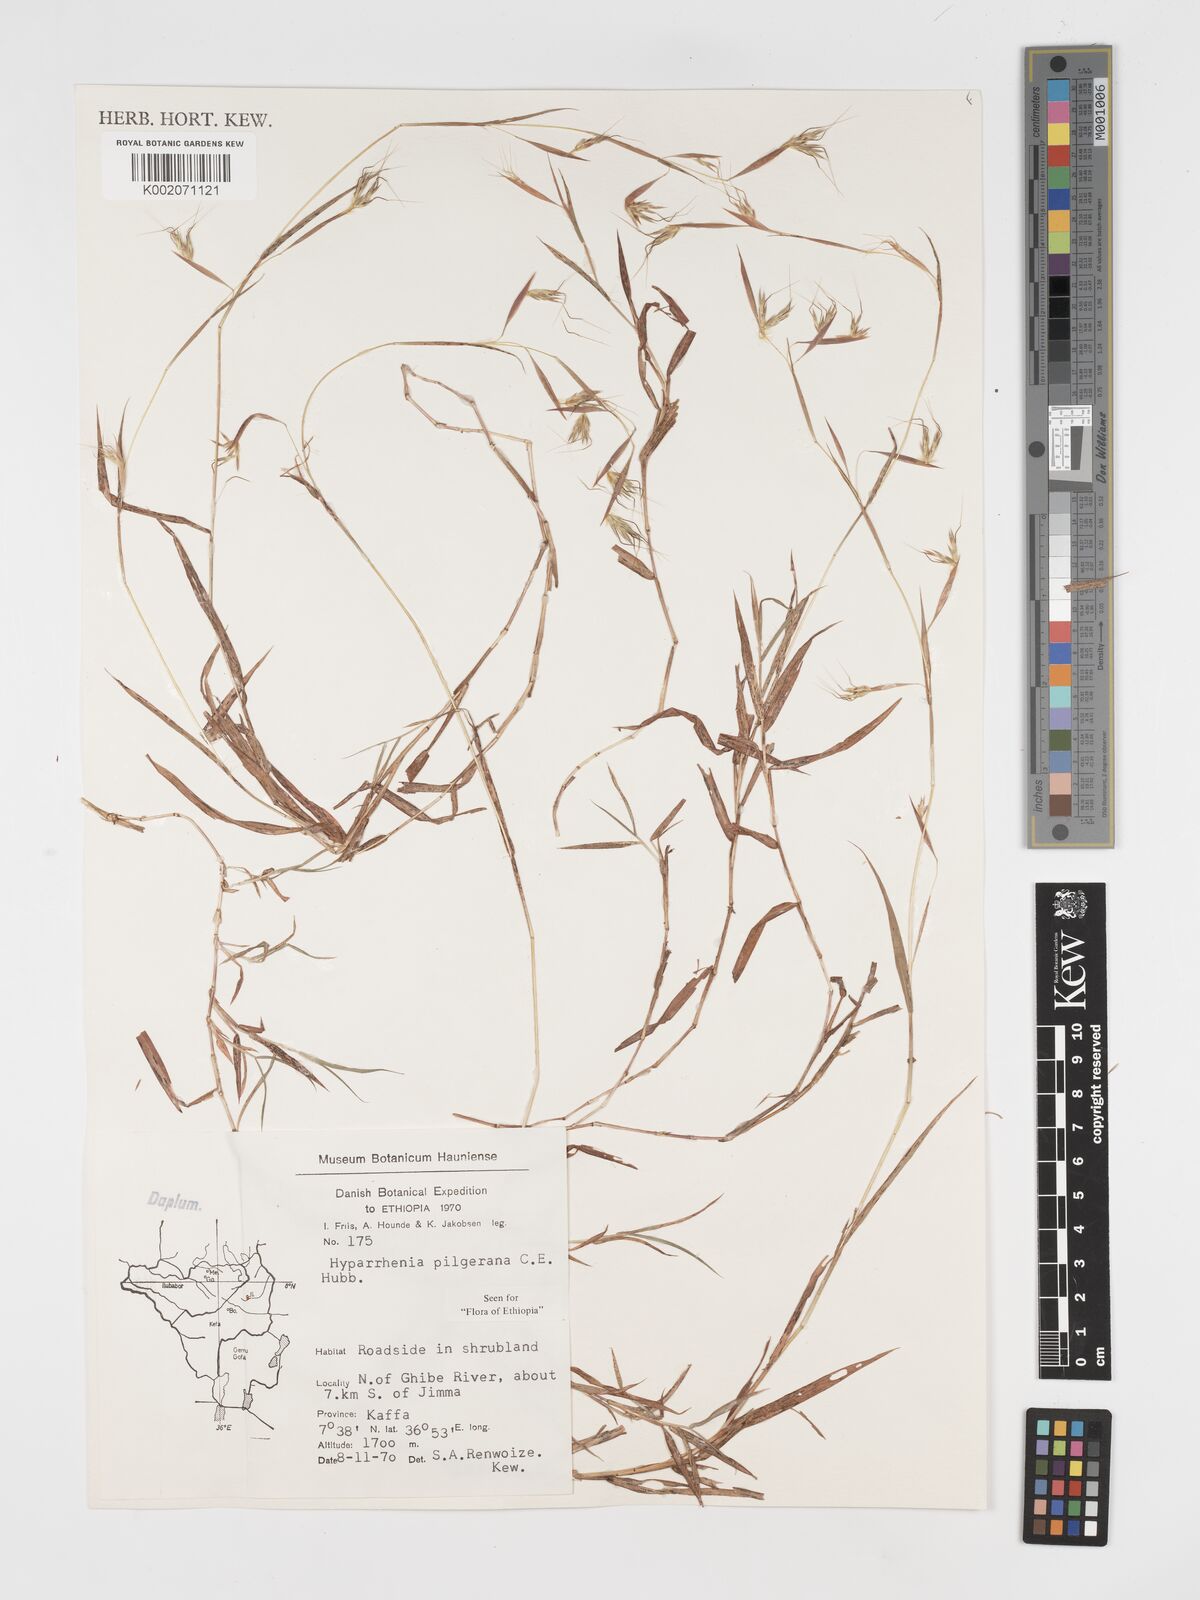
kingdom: Plantae
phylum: Tracheophyta
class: Liliopsida
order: Poales
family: Poaceae
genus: Hyparrhenia
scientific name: Hyparrhenia pilgeriana
